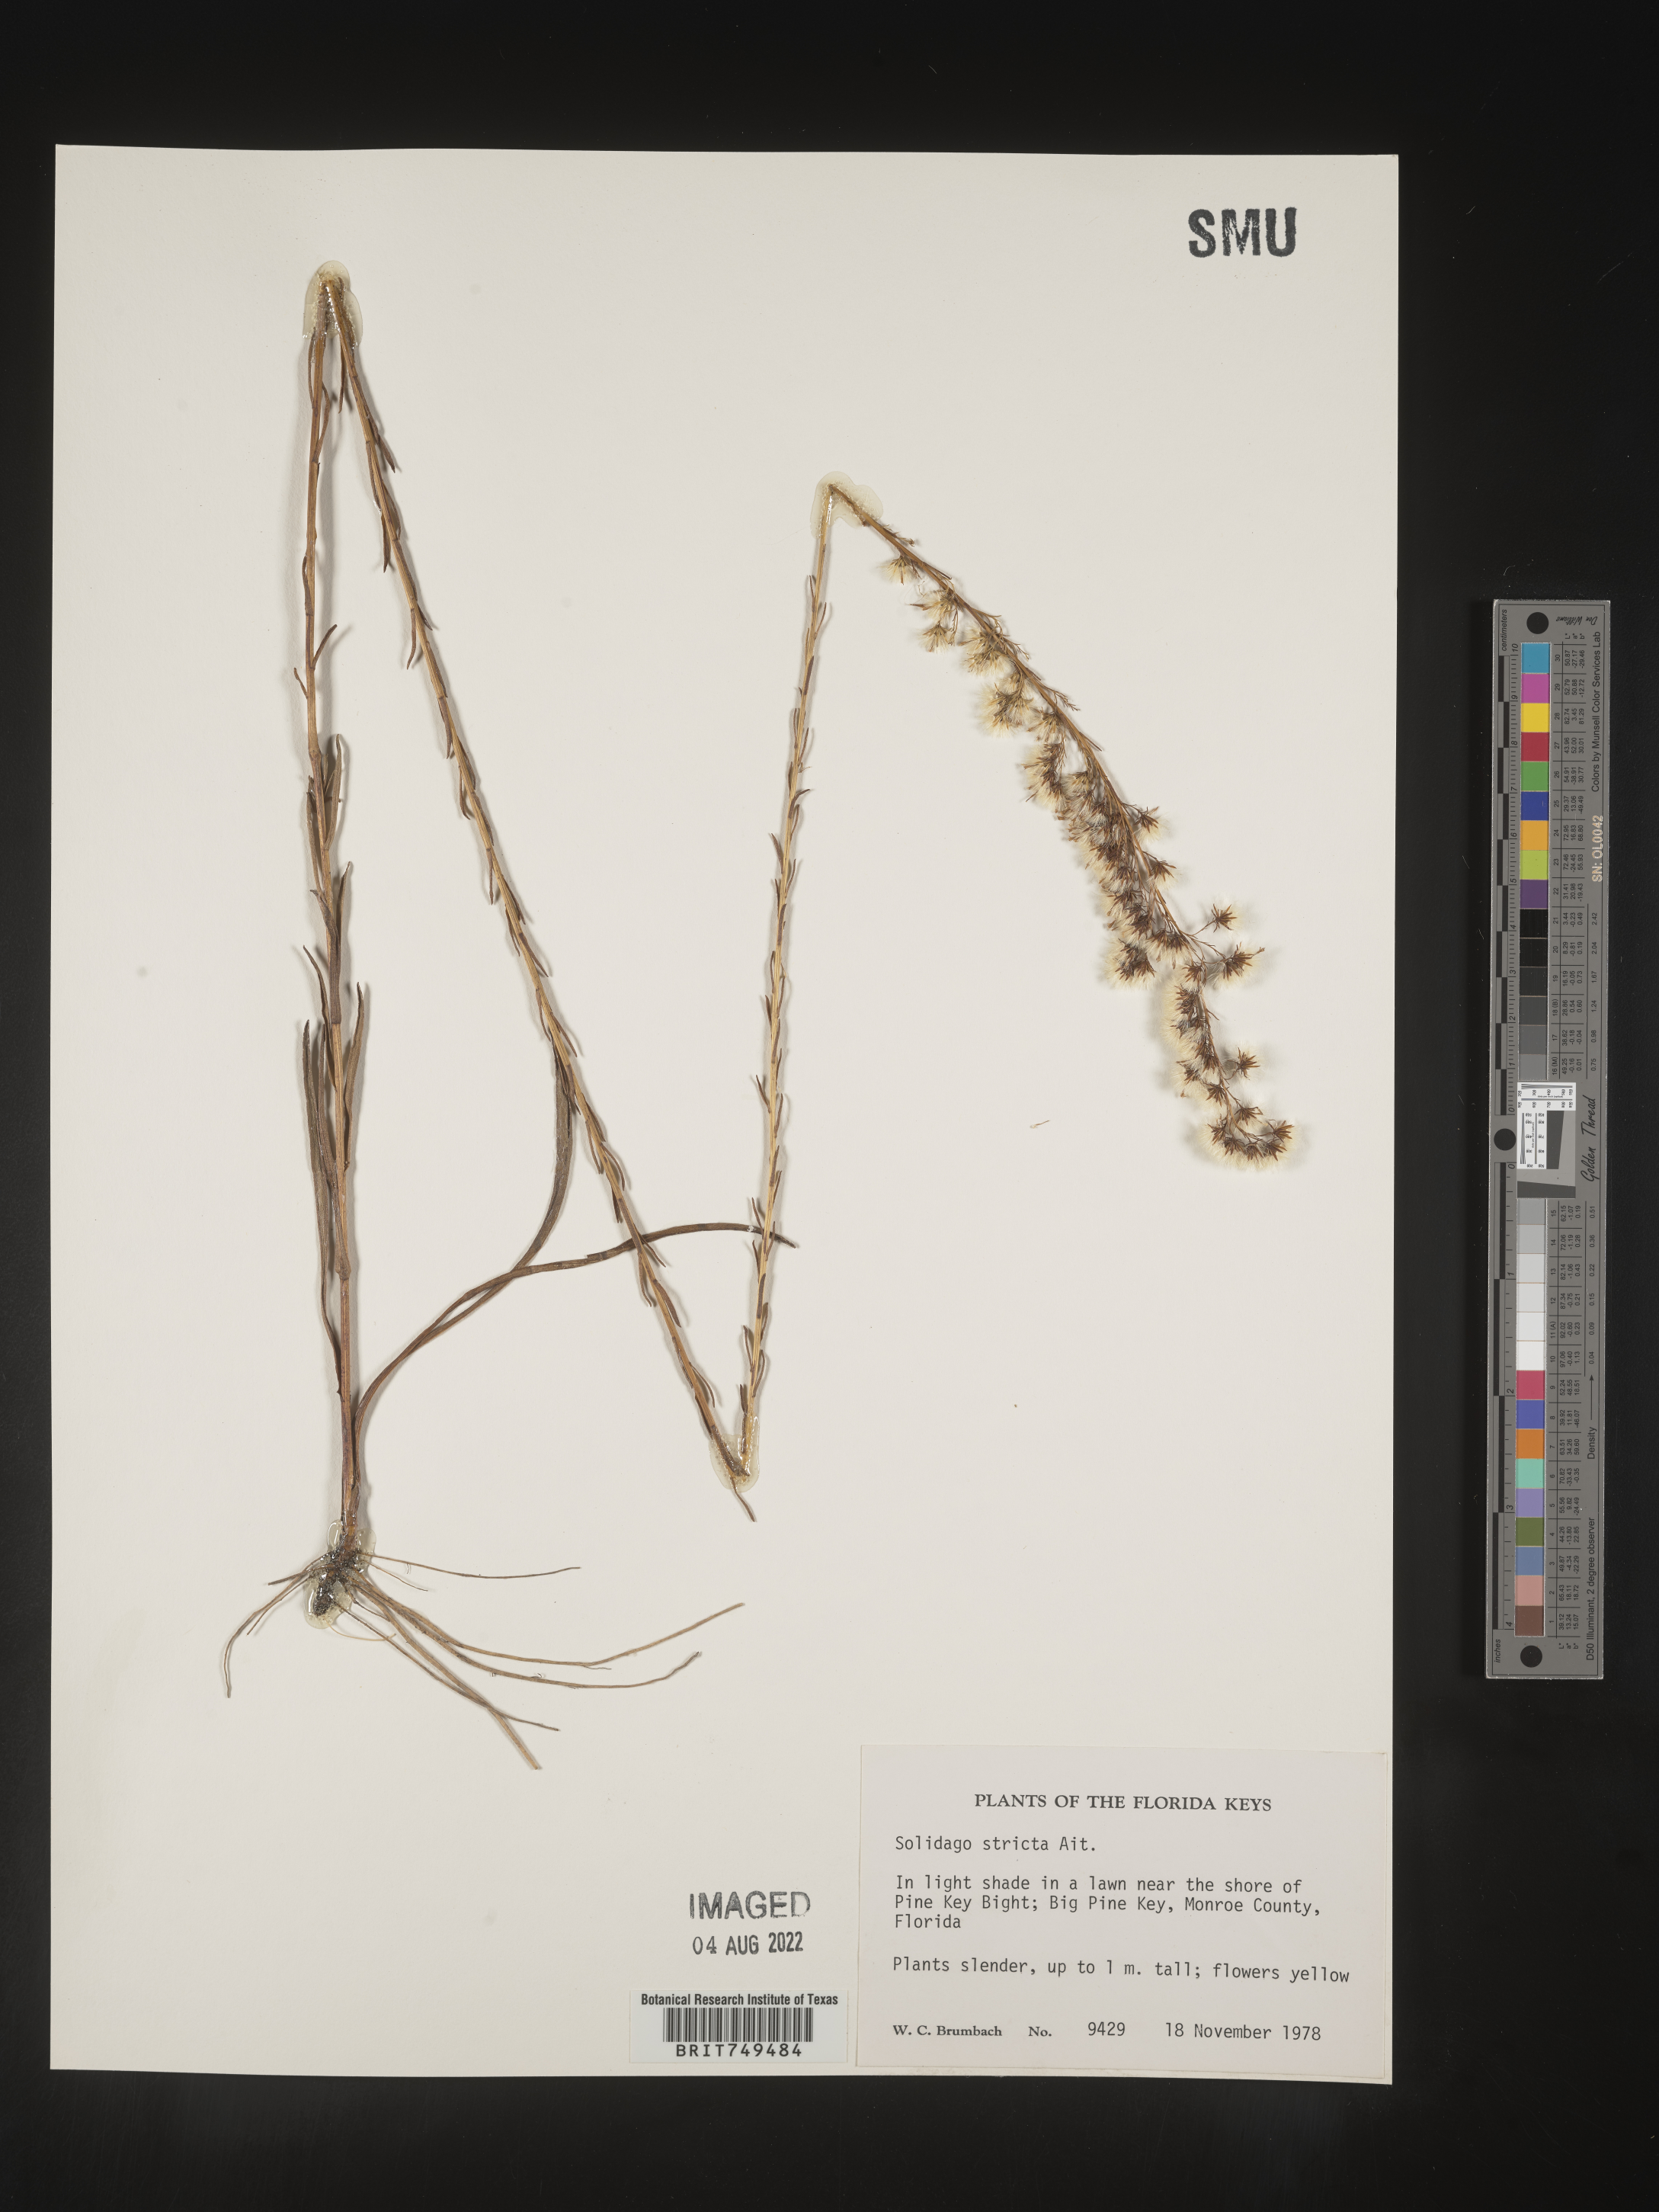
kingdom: Plantae
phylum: Tracheophyta
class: Magnoliopsida
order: Asterales
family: Asteraceae
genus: Solidago
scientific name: Solidago stricta
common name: Pine barren bog goldenrod
